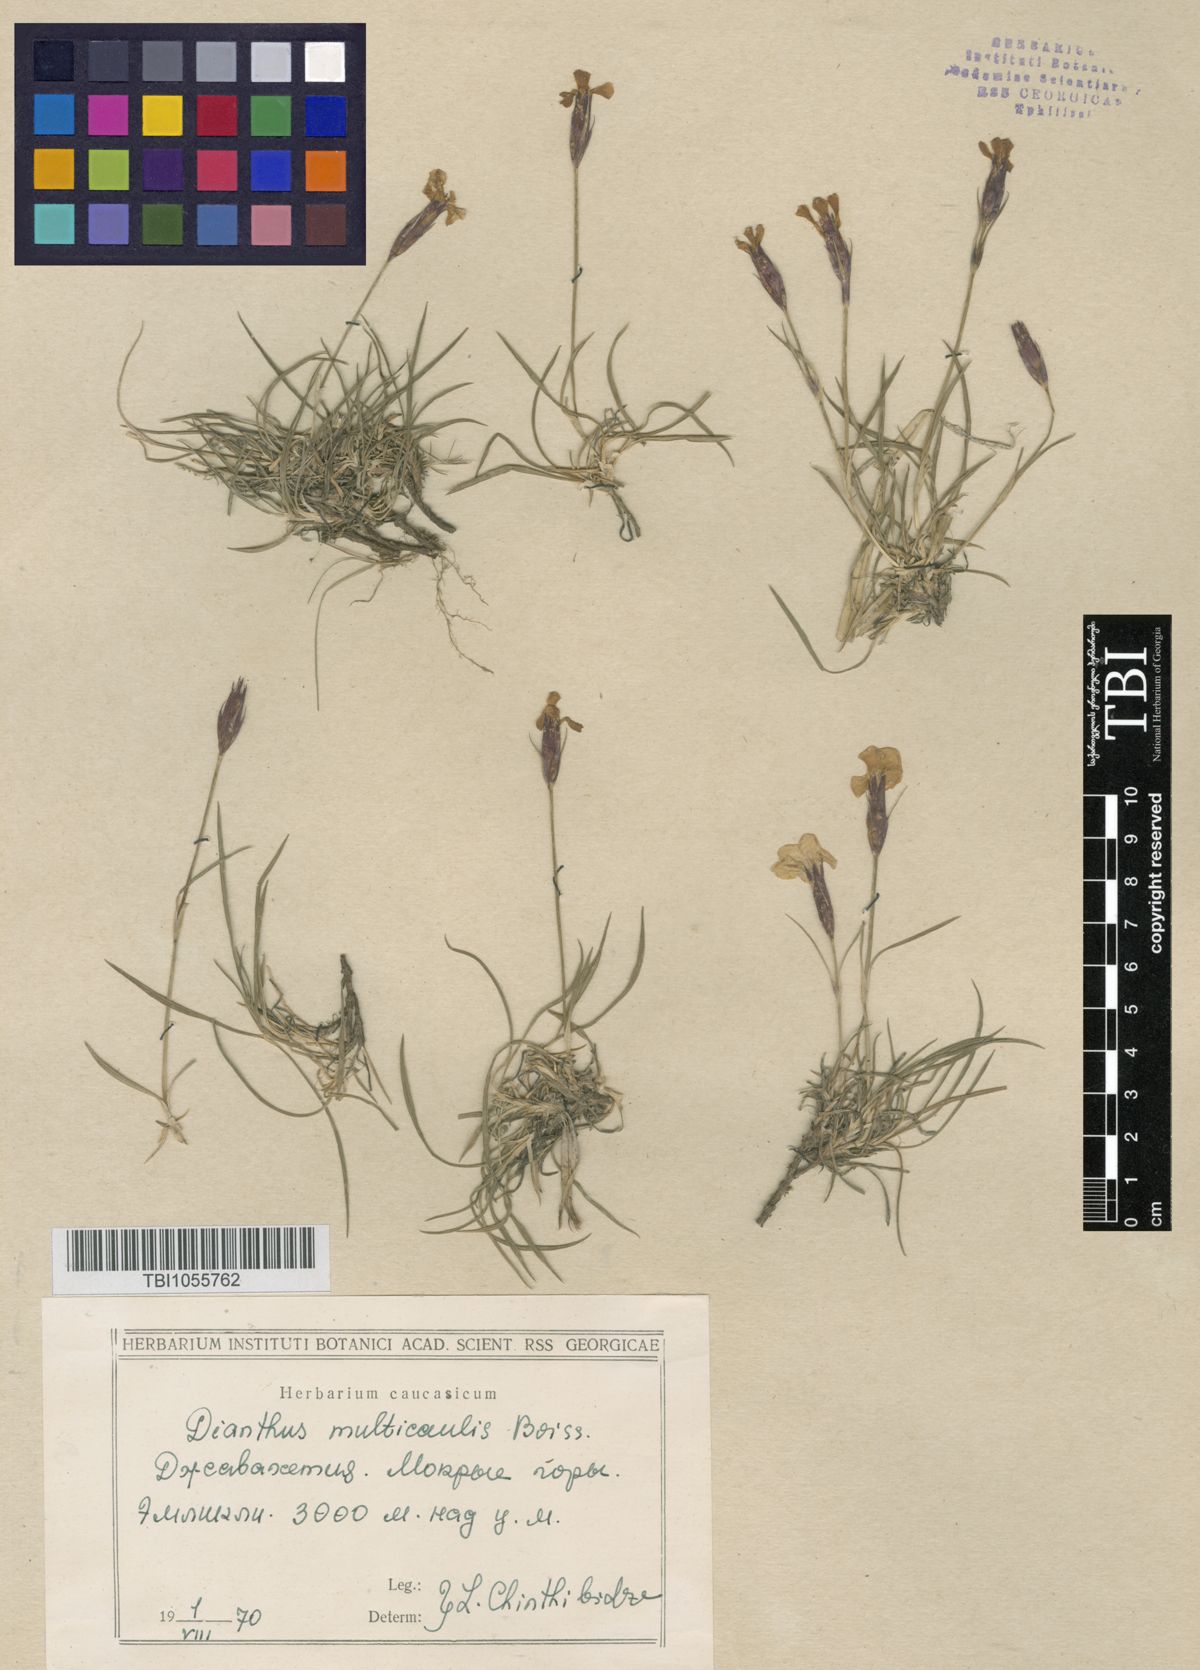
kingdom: Plantae
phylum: Tracheophyta
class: Magnoliopsida
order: Caryophyllales
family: Caryophyllaceae
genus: Dianthus
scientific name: Dianthus cretaceus
